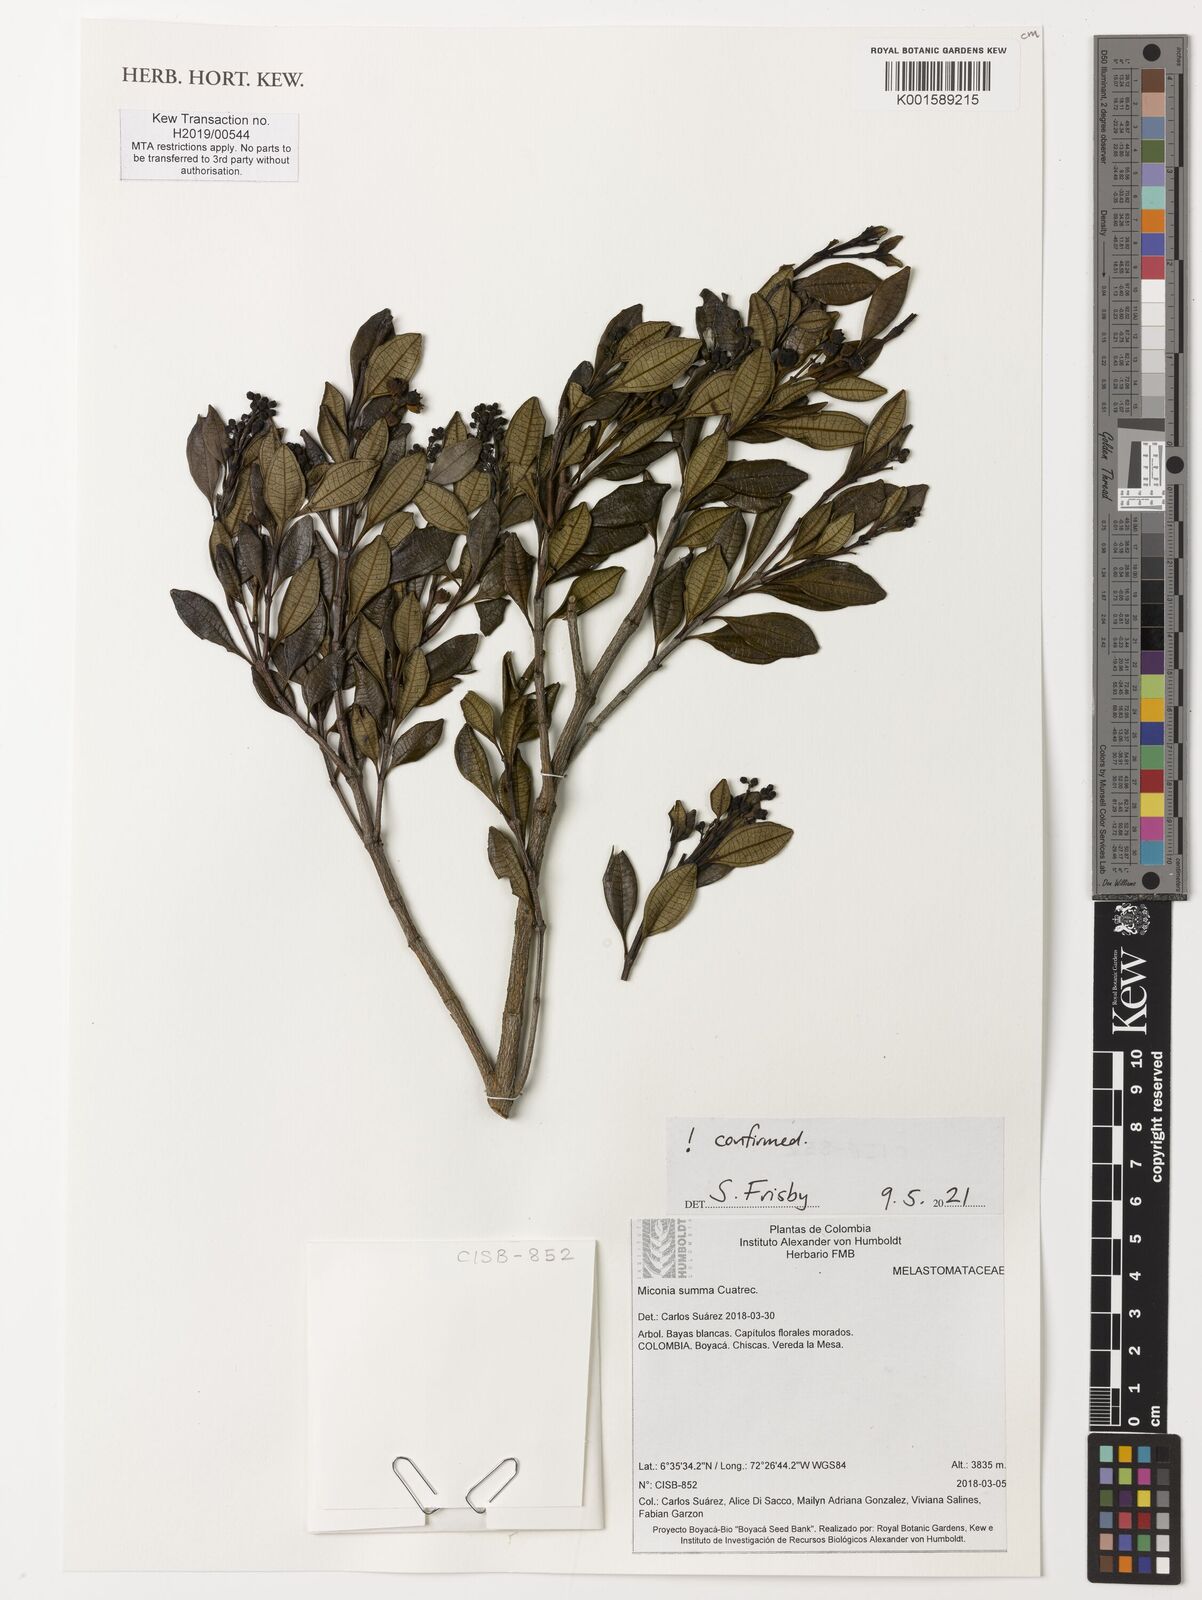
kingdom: Plantae
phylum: Tracheophyta
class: Magnoliopsida
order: Myrtales
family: Melastomataceae
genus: Miconia
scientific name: Miconia summa
